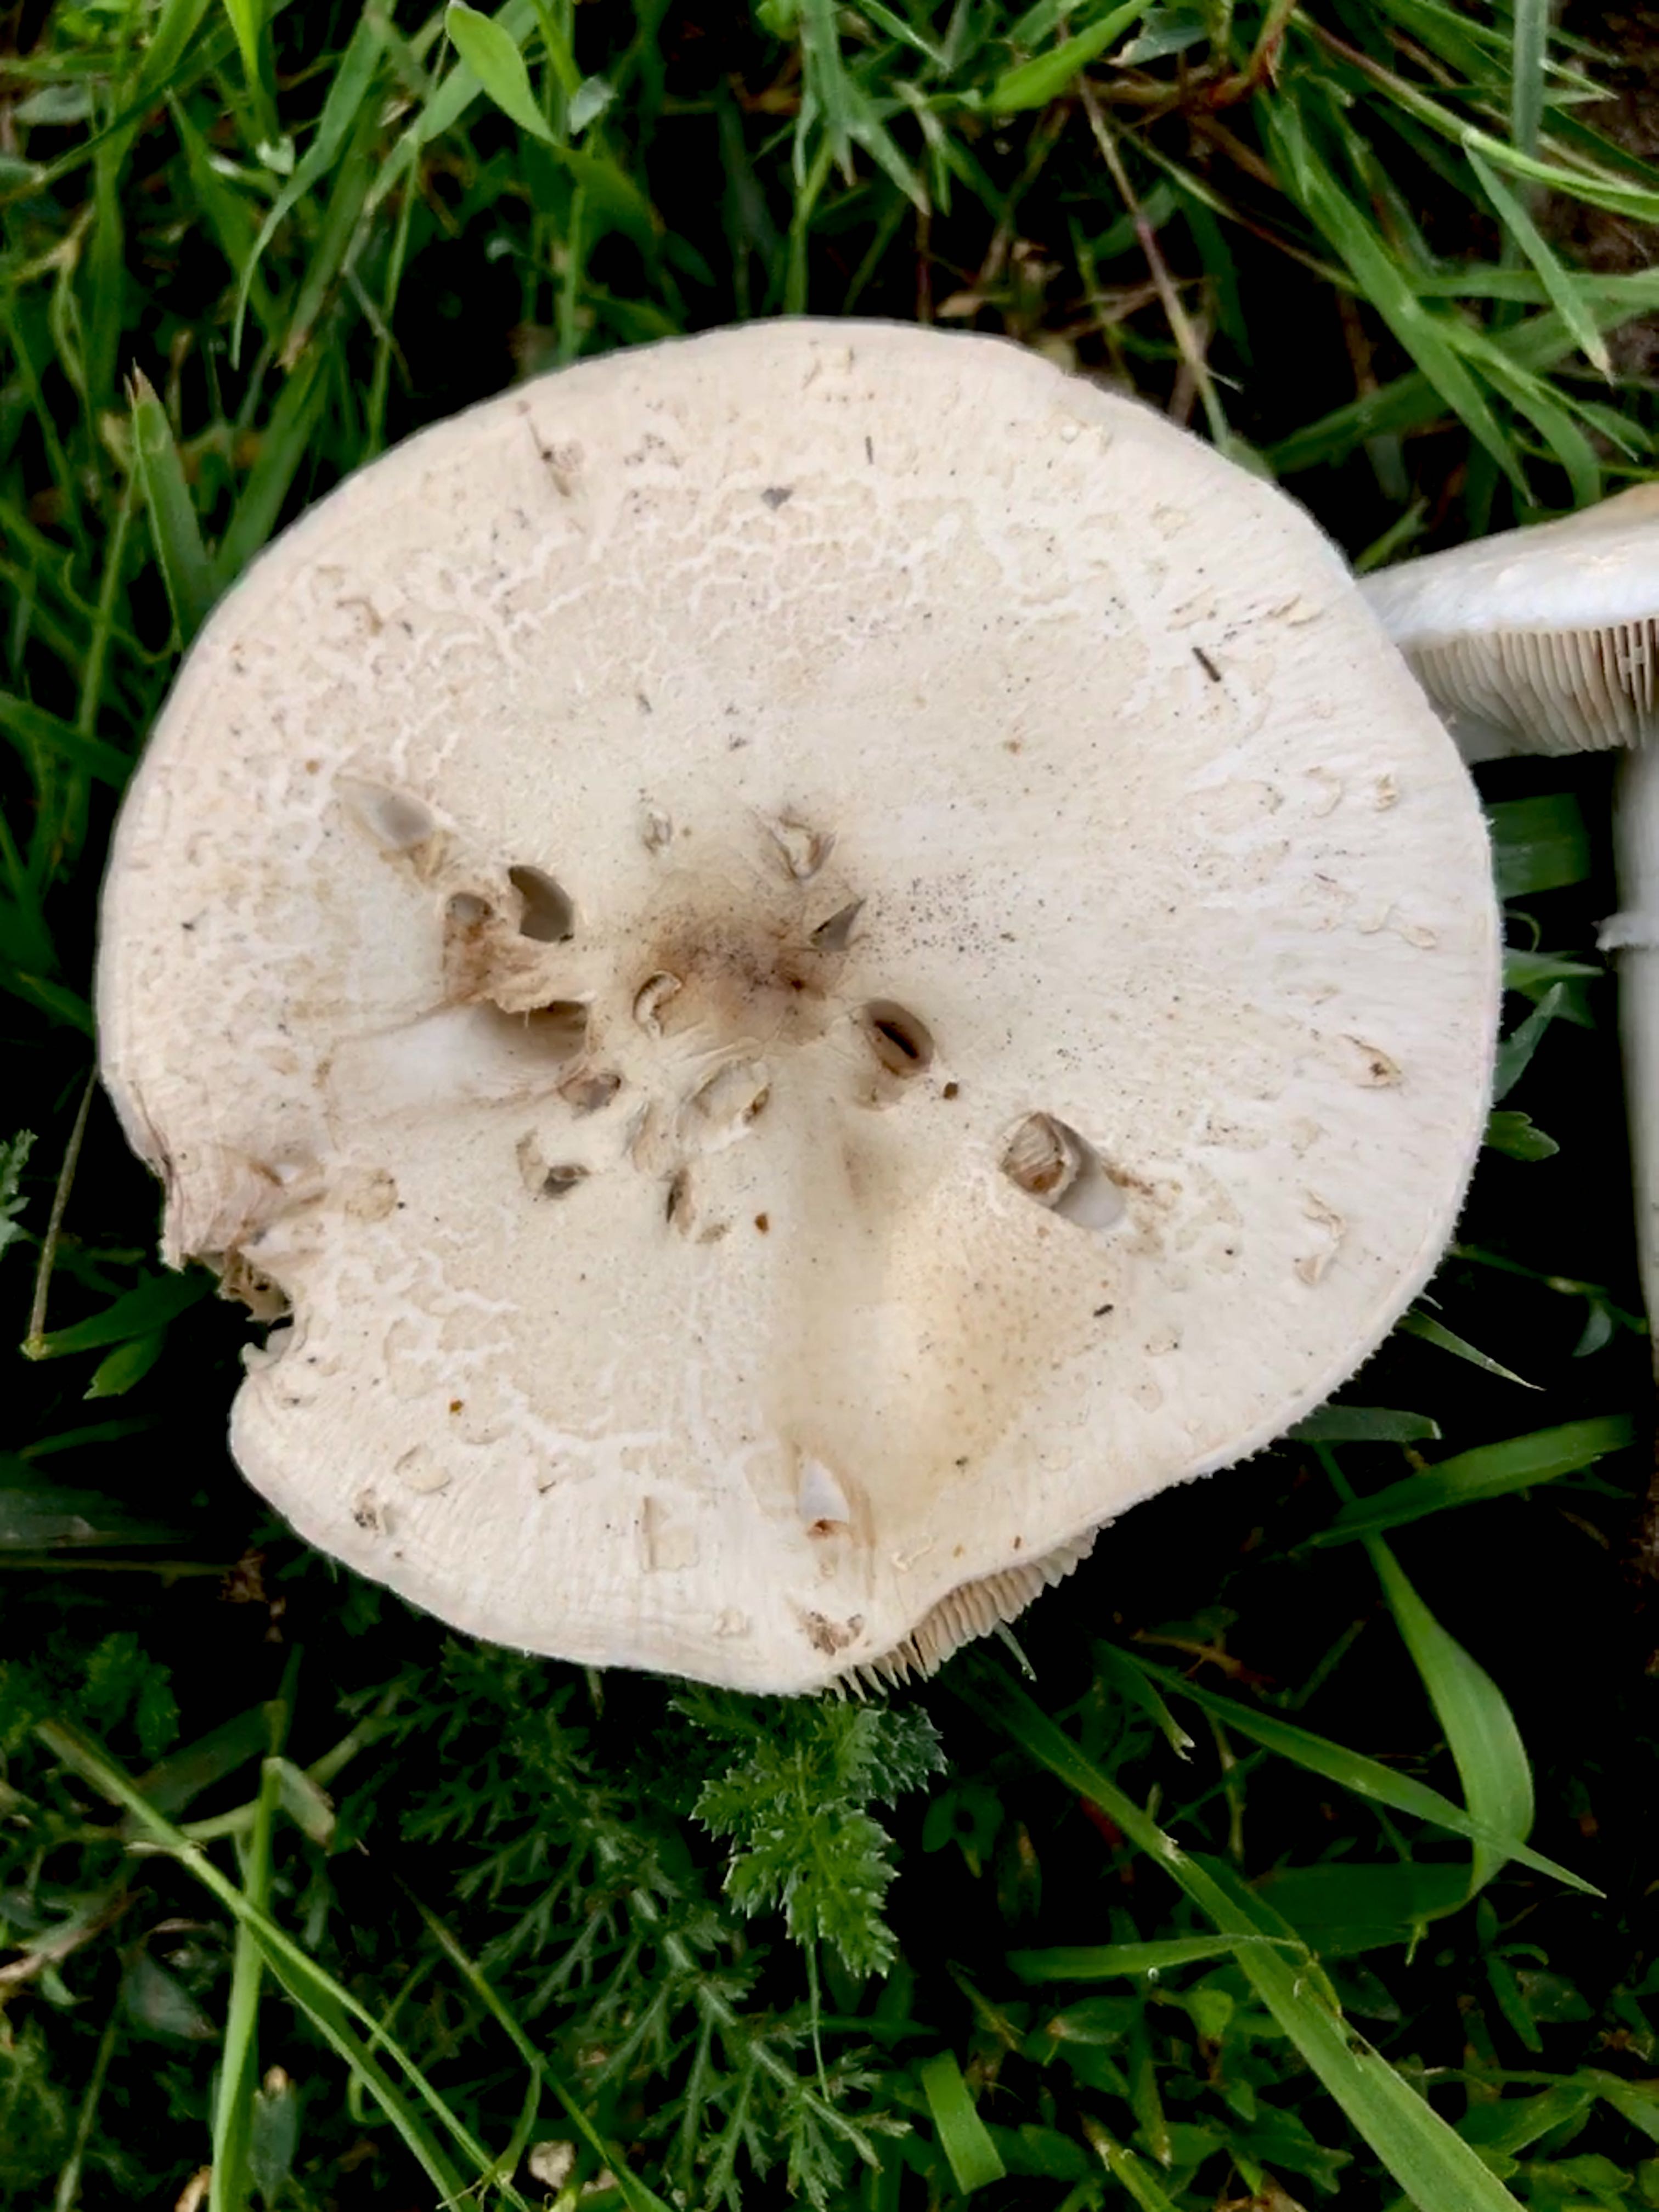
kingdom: Fungi
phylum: Basidiomycota
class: Agaricomycetes
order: Agaricales
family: Agaricaceae
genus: Leucoagaricus
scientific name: Leucoagaricus leucothites
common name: rosabladet silkehat
